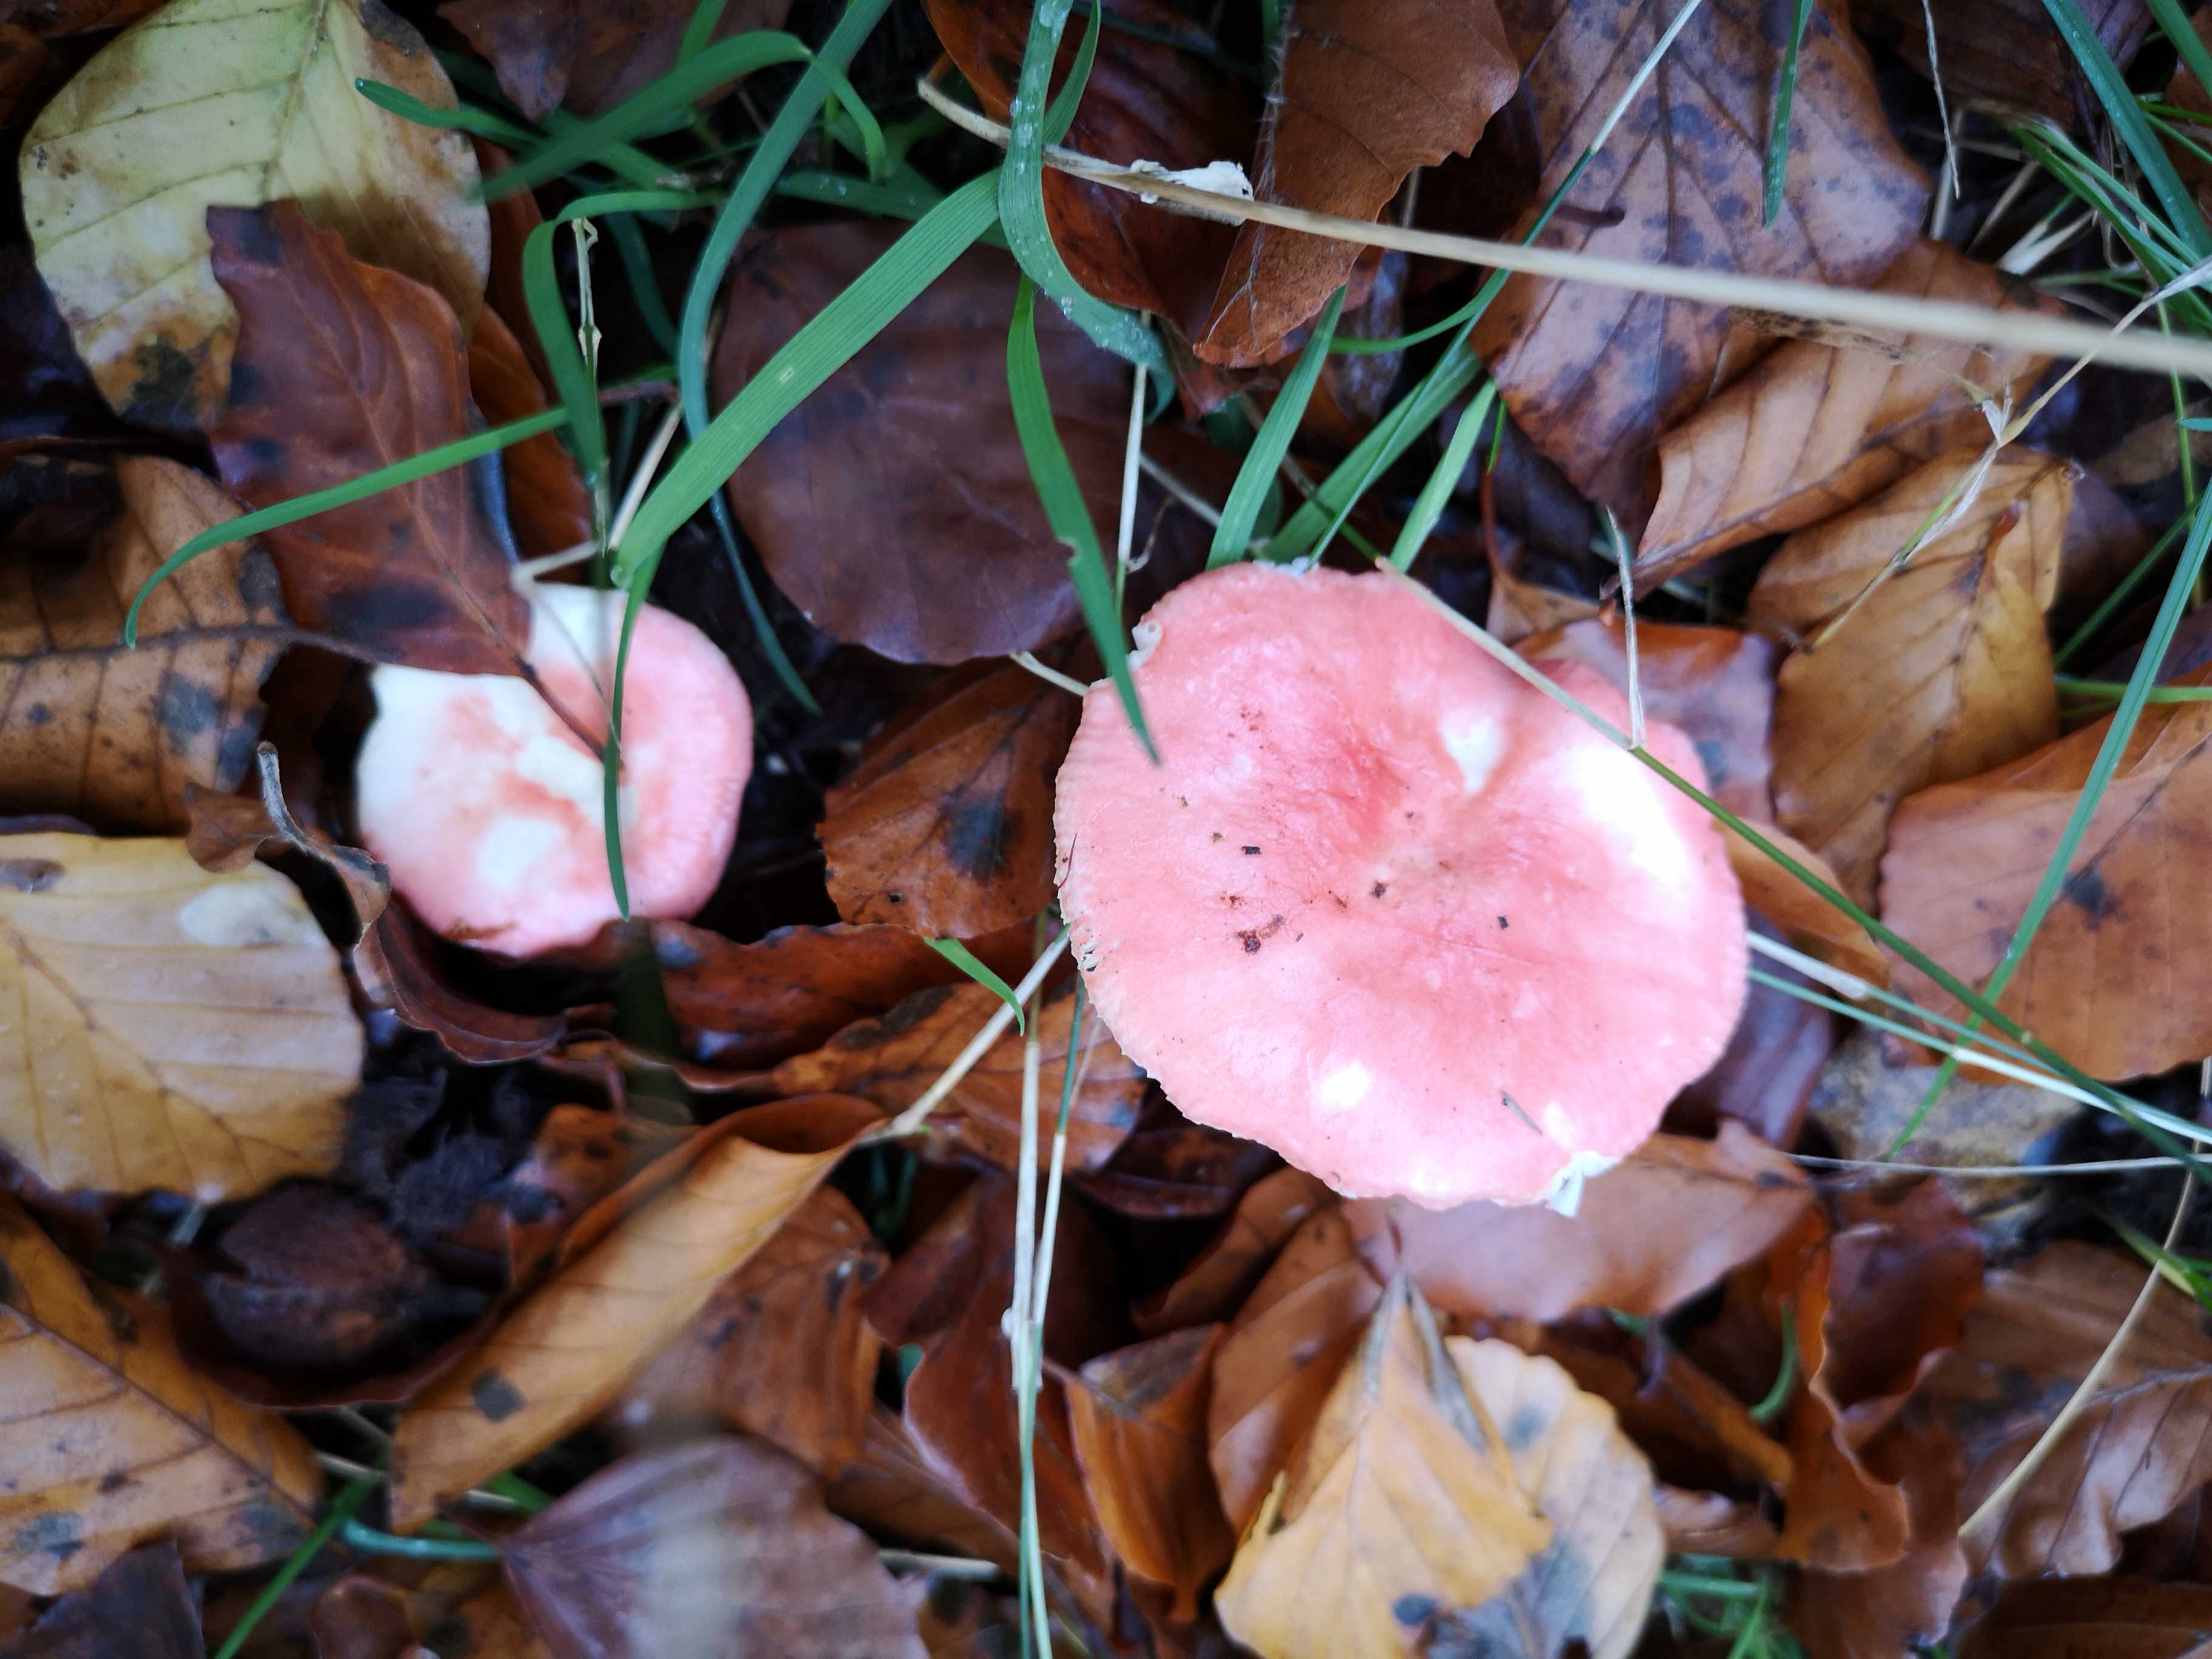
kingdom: Fungi
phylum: Basidiomycota
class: Agaricomycetes
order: Russulales
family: Russulaceae
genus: Russula
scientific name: Russula
